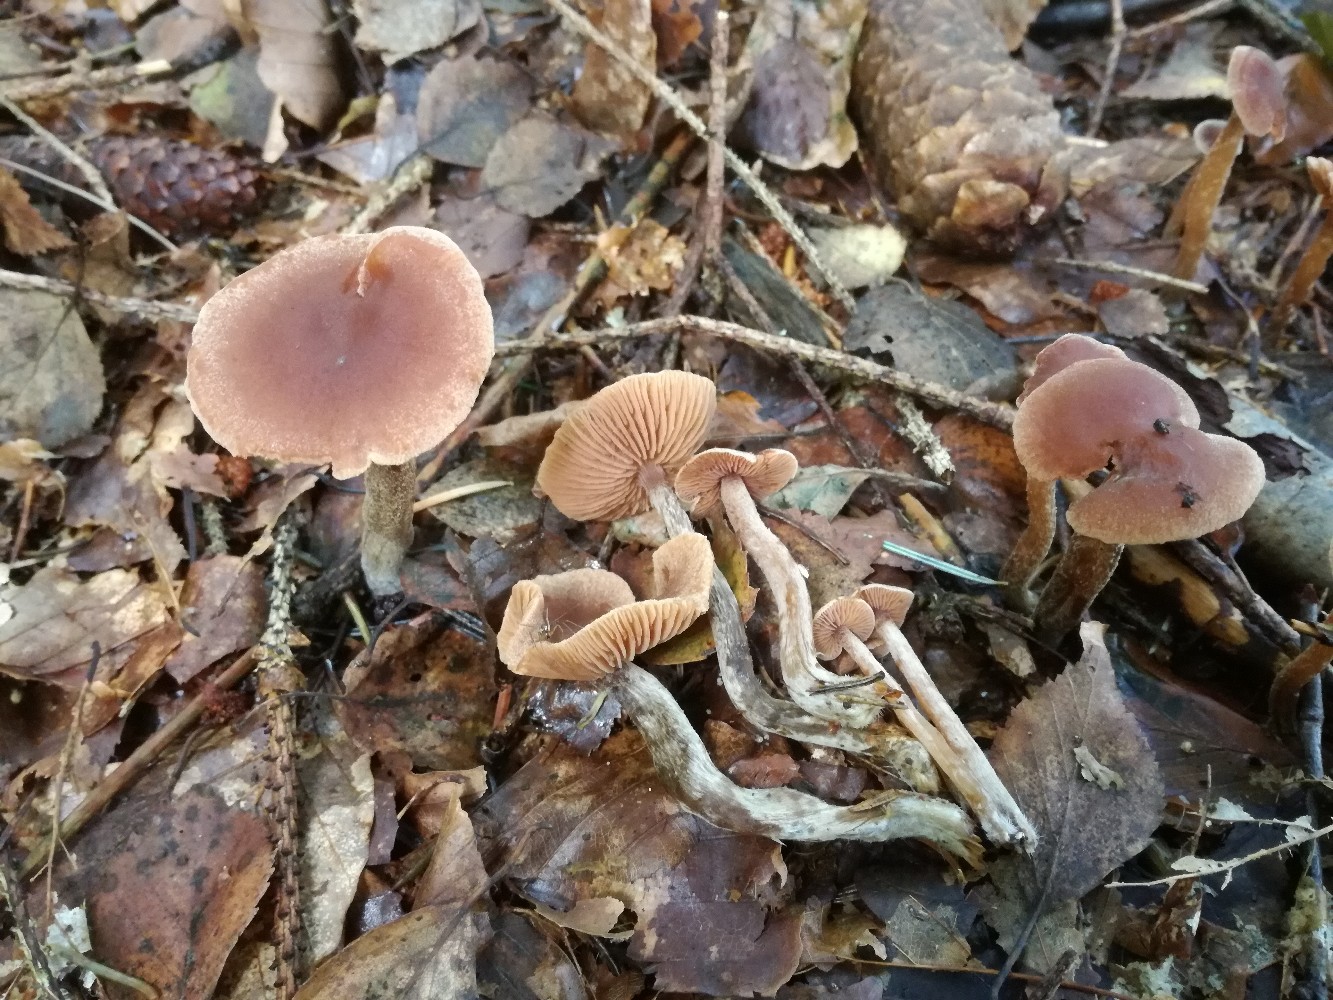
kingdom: Fungi
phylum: Basidiomycota
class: Agaricomycetes
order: Agaricales
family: Hymenogastraceae
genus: Naucoria
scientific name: Naucoria sphagneti
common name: lysrandet knaphat
